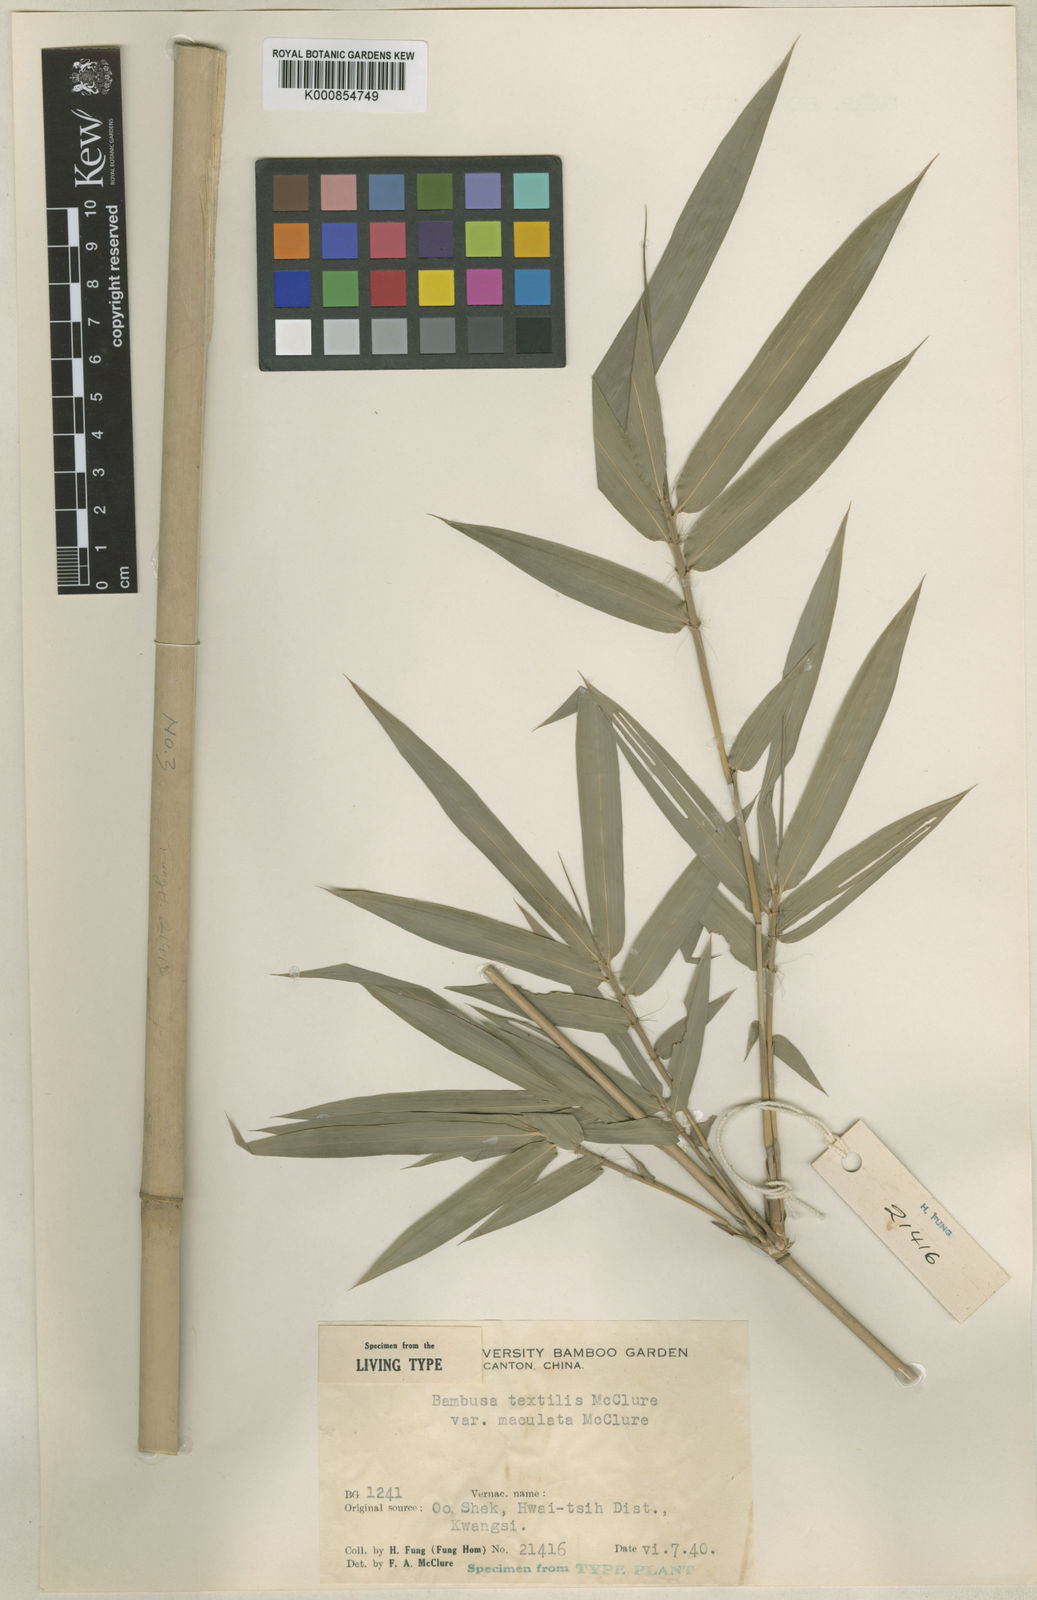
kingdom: Plantae
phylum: Tracheophyta
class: Liliopsida
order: Poales
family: Poaceae
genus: Bambusa
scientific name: Bambusa textilis
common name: Weaver's bamboo
